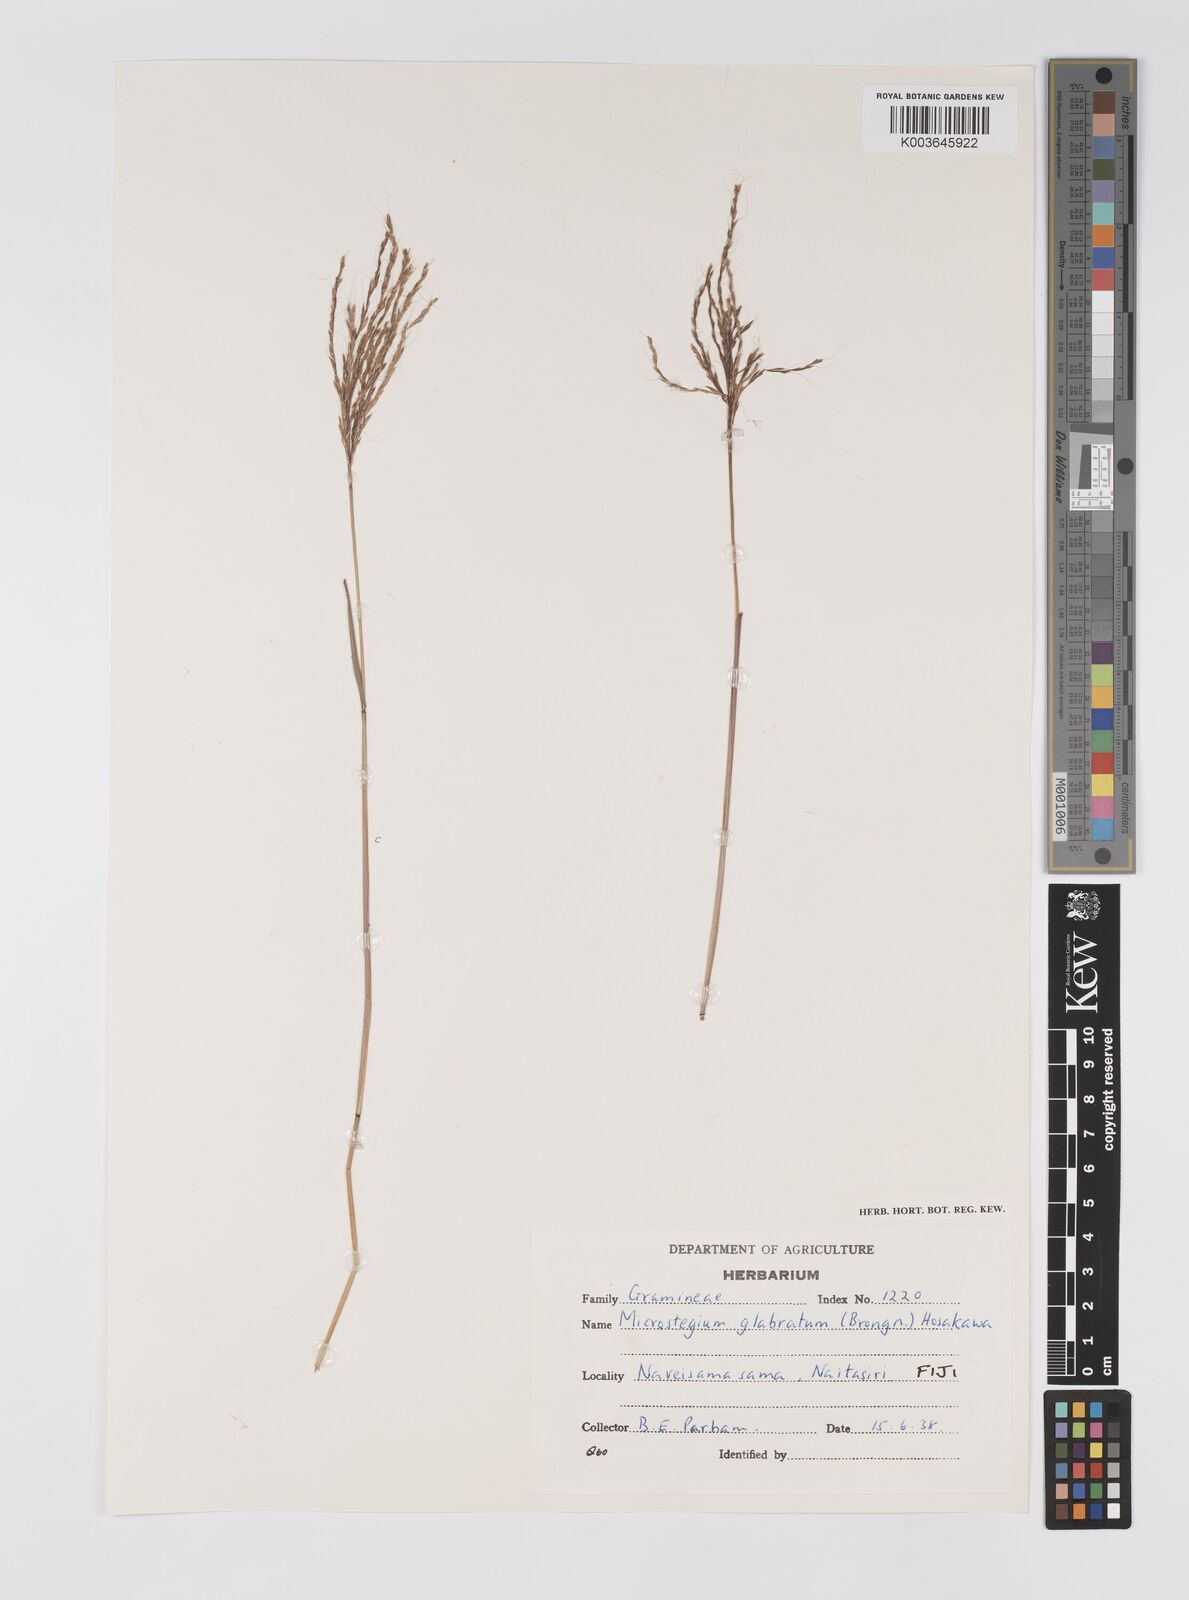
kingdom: Plantae
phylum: Tracheophyta
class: Liliopsida
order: Poales
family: Poaceae
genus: Microstegium
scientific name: Microstegium glabratum
